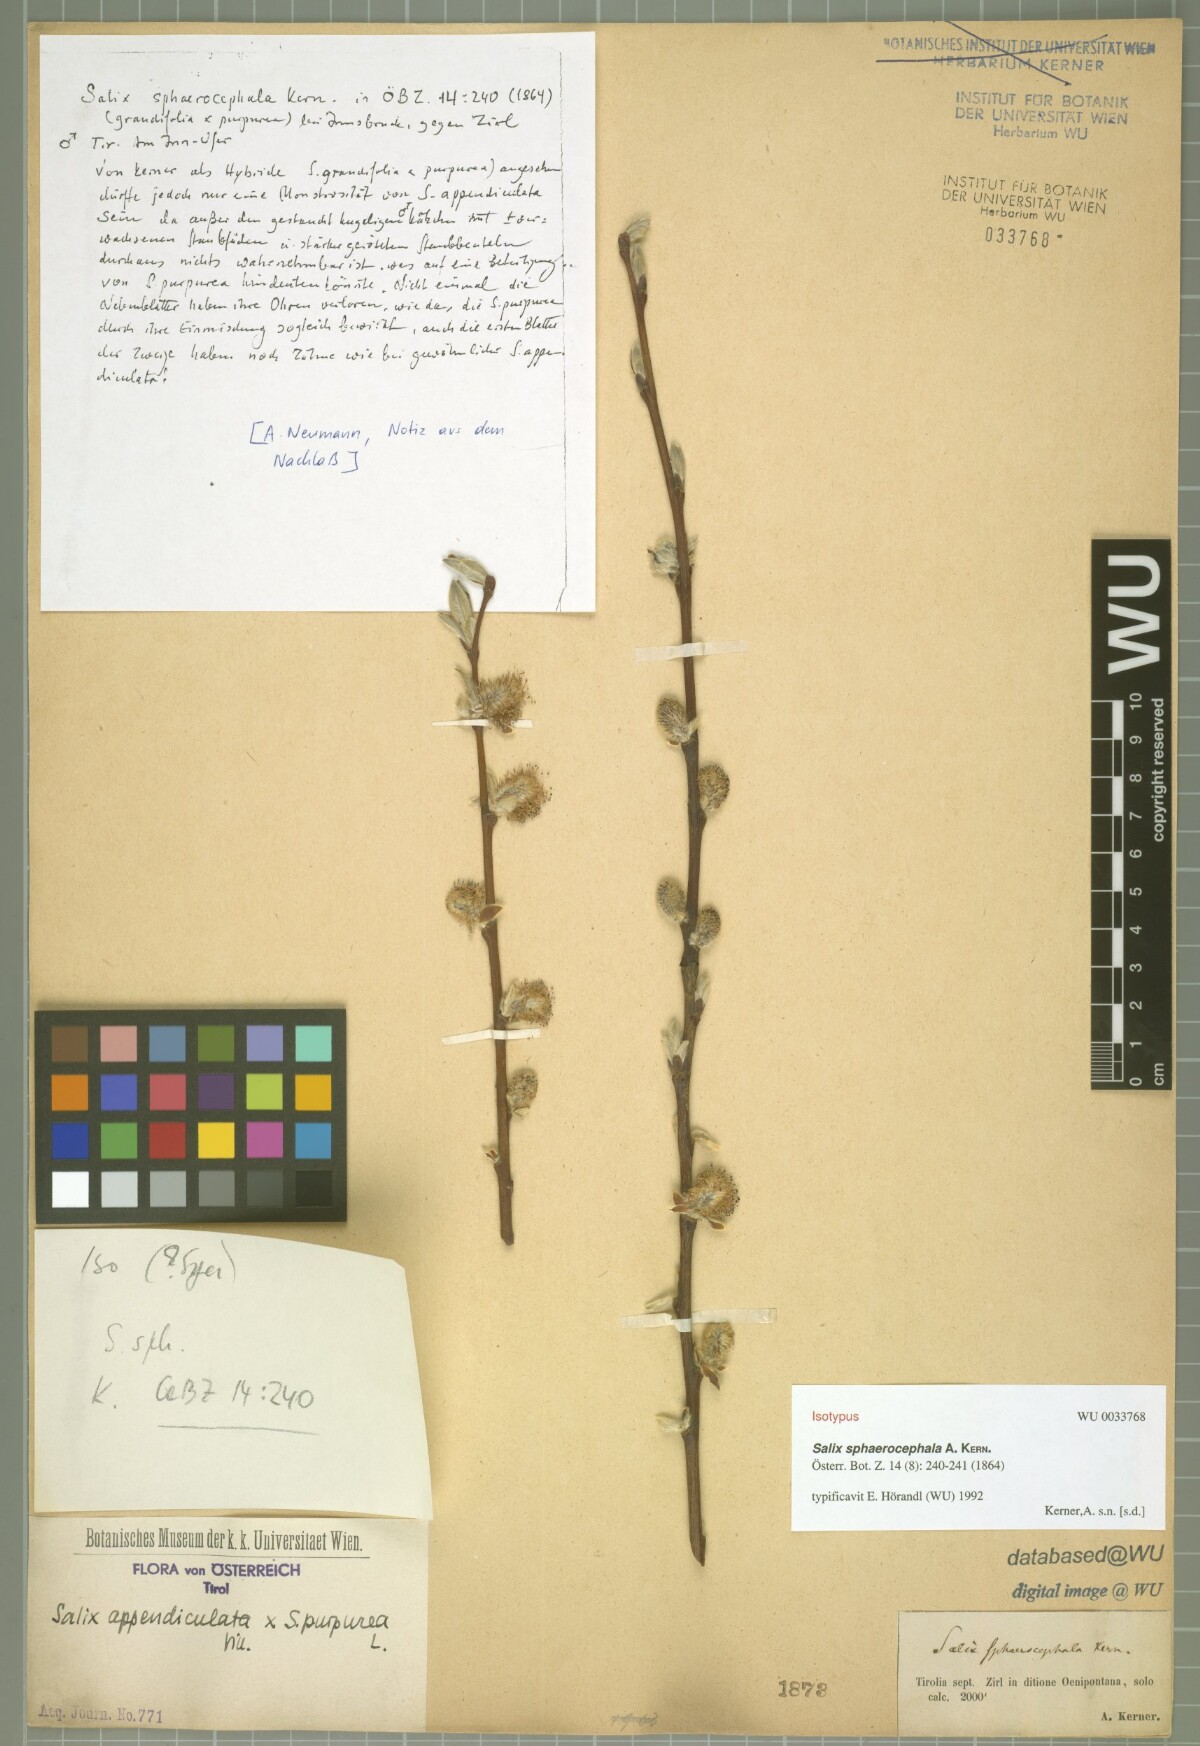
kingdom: Plantae
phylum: Tracheophyta
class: Magnoliopsida
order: Malpighiales
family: Salicaceae
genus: Salix
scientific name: Salix purpurea
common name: Purple willow
